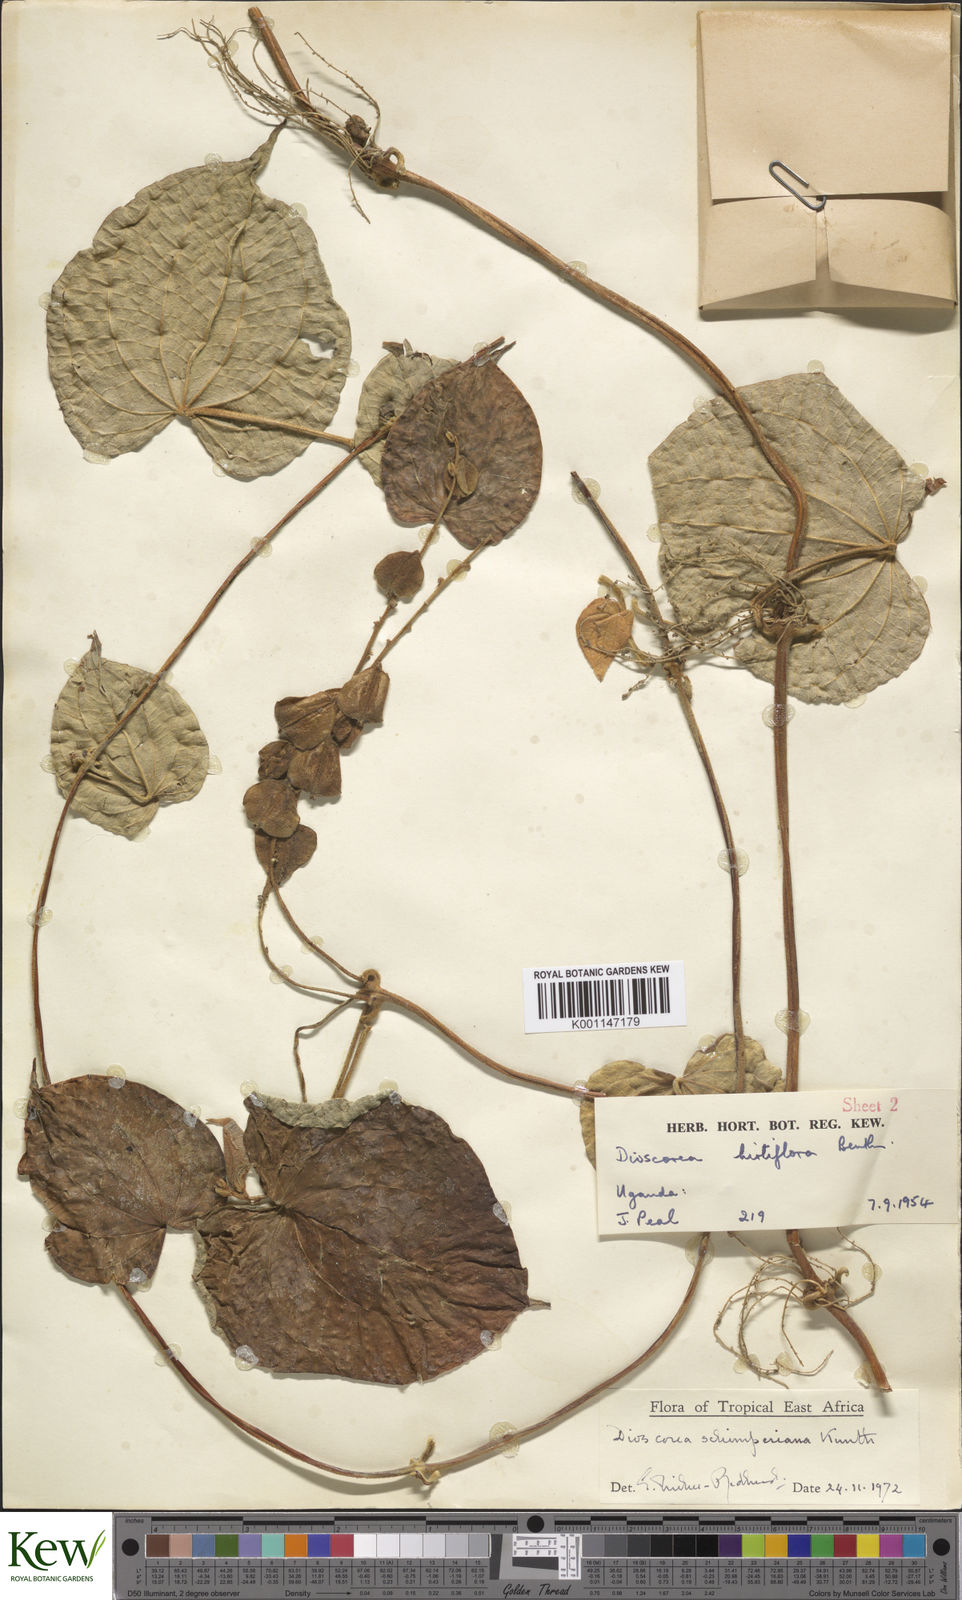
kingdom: Plantae
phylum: Tracheophyta
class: Liliopsida
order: Dioscoreales
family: Dioscoreaceae
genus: Dioscorea
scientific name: Dioscorea schimperiana
